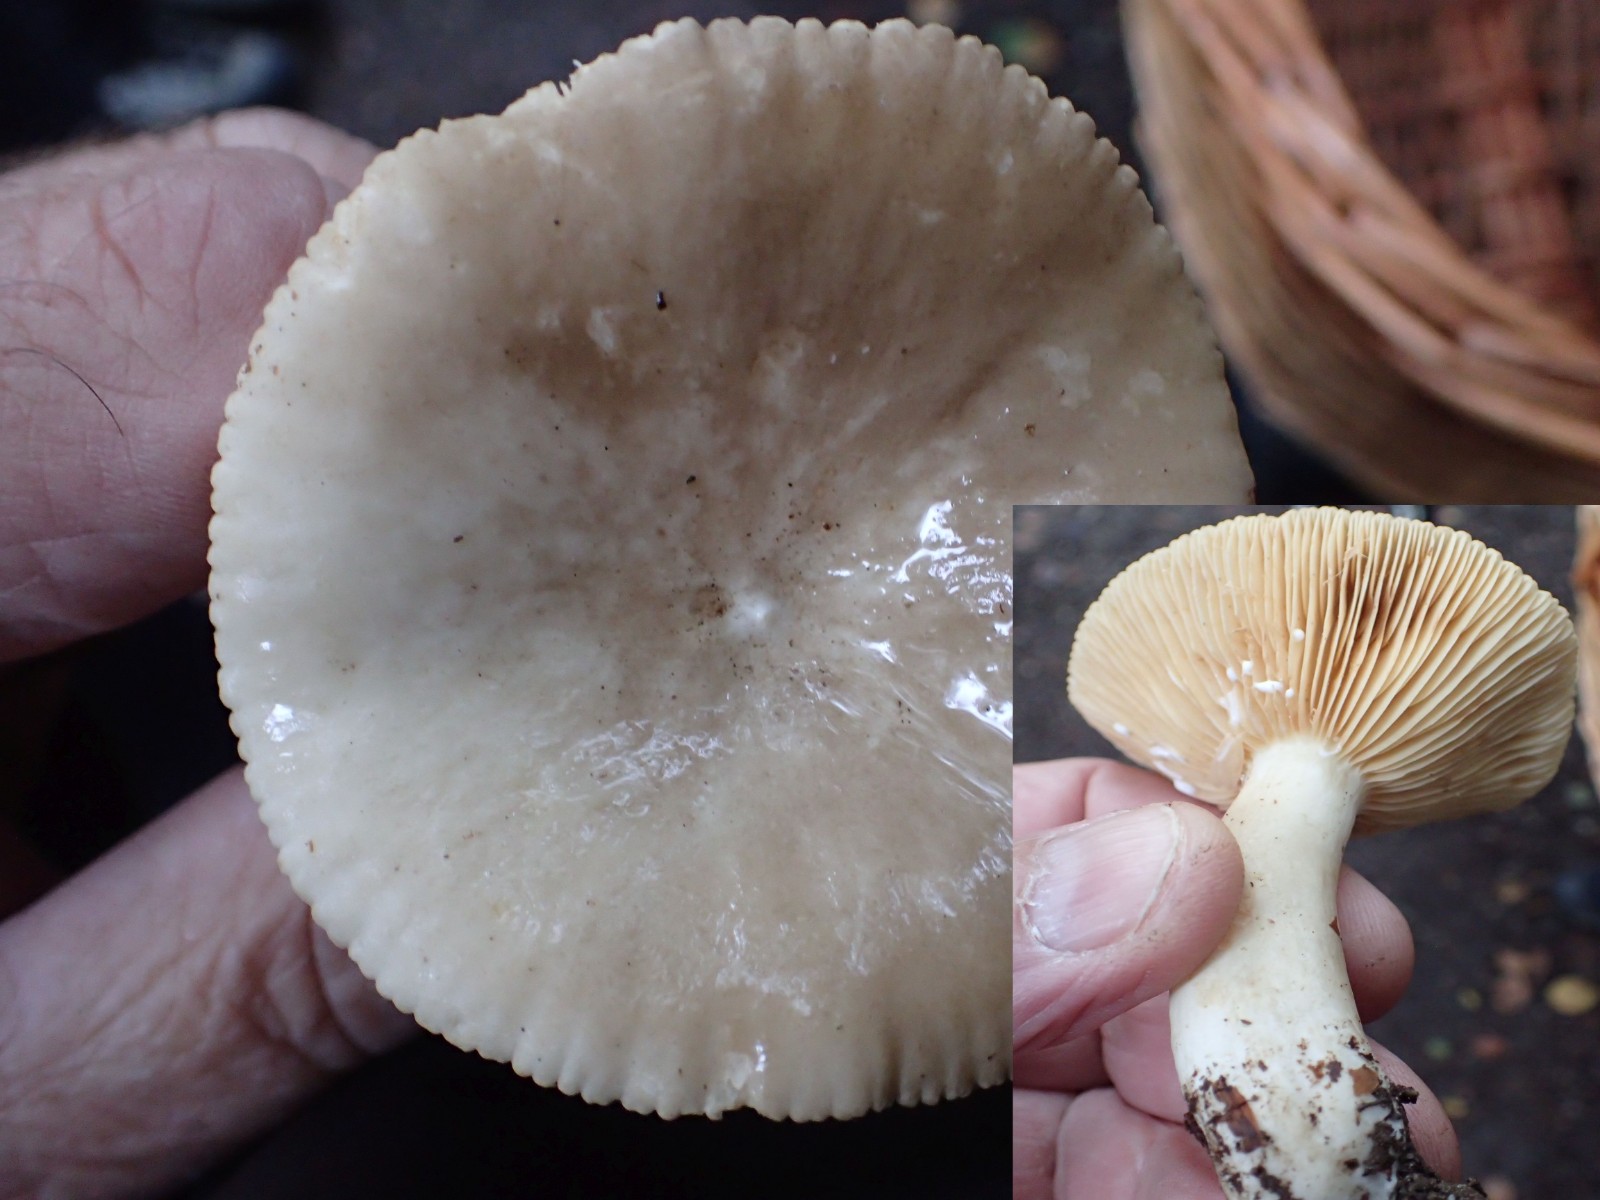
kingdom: Fungi
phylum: Basidiomycota
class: Agaricomycetes
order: Russulales
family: Russulaceae
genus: Lactarius
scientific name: Lactarius tabidus
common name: rynket mælkehat
